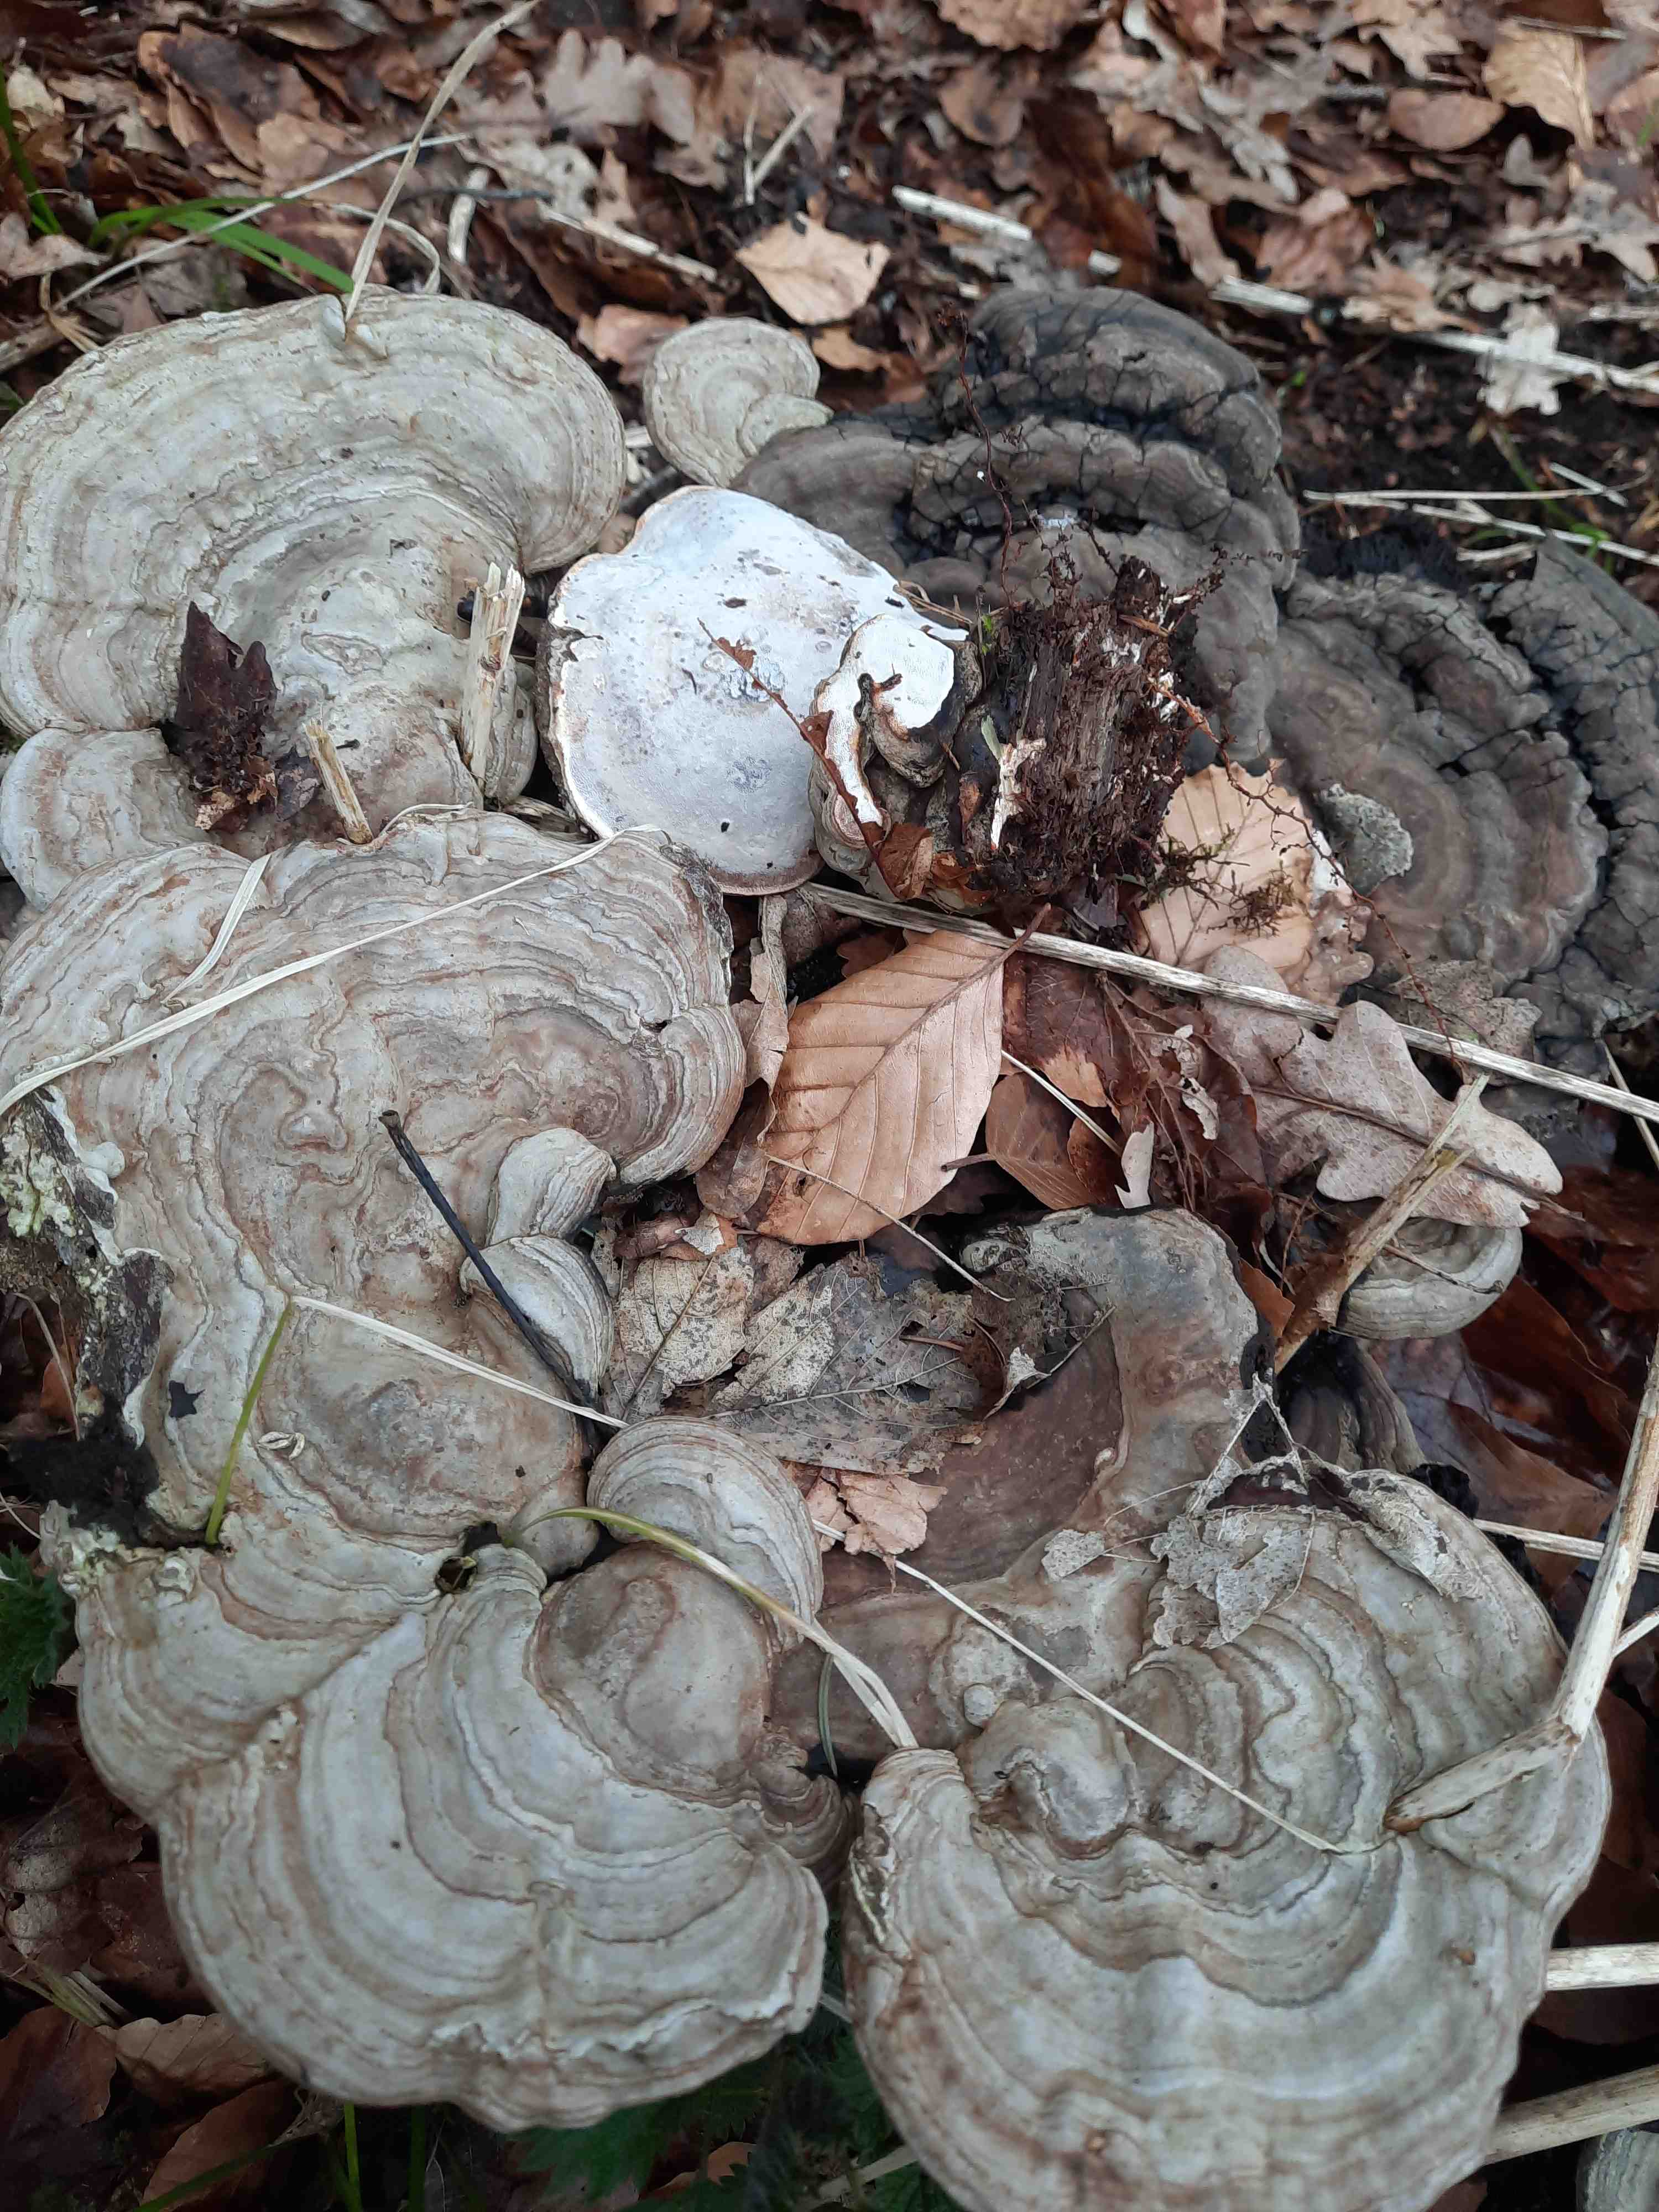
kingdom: Fungi
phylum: Basidiomycota
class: Agaricomycetes
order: Polyporales
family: Polyporaceae
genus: Ganoderma
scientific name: Ganoderma applanatum
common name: flad lakporesvamp
